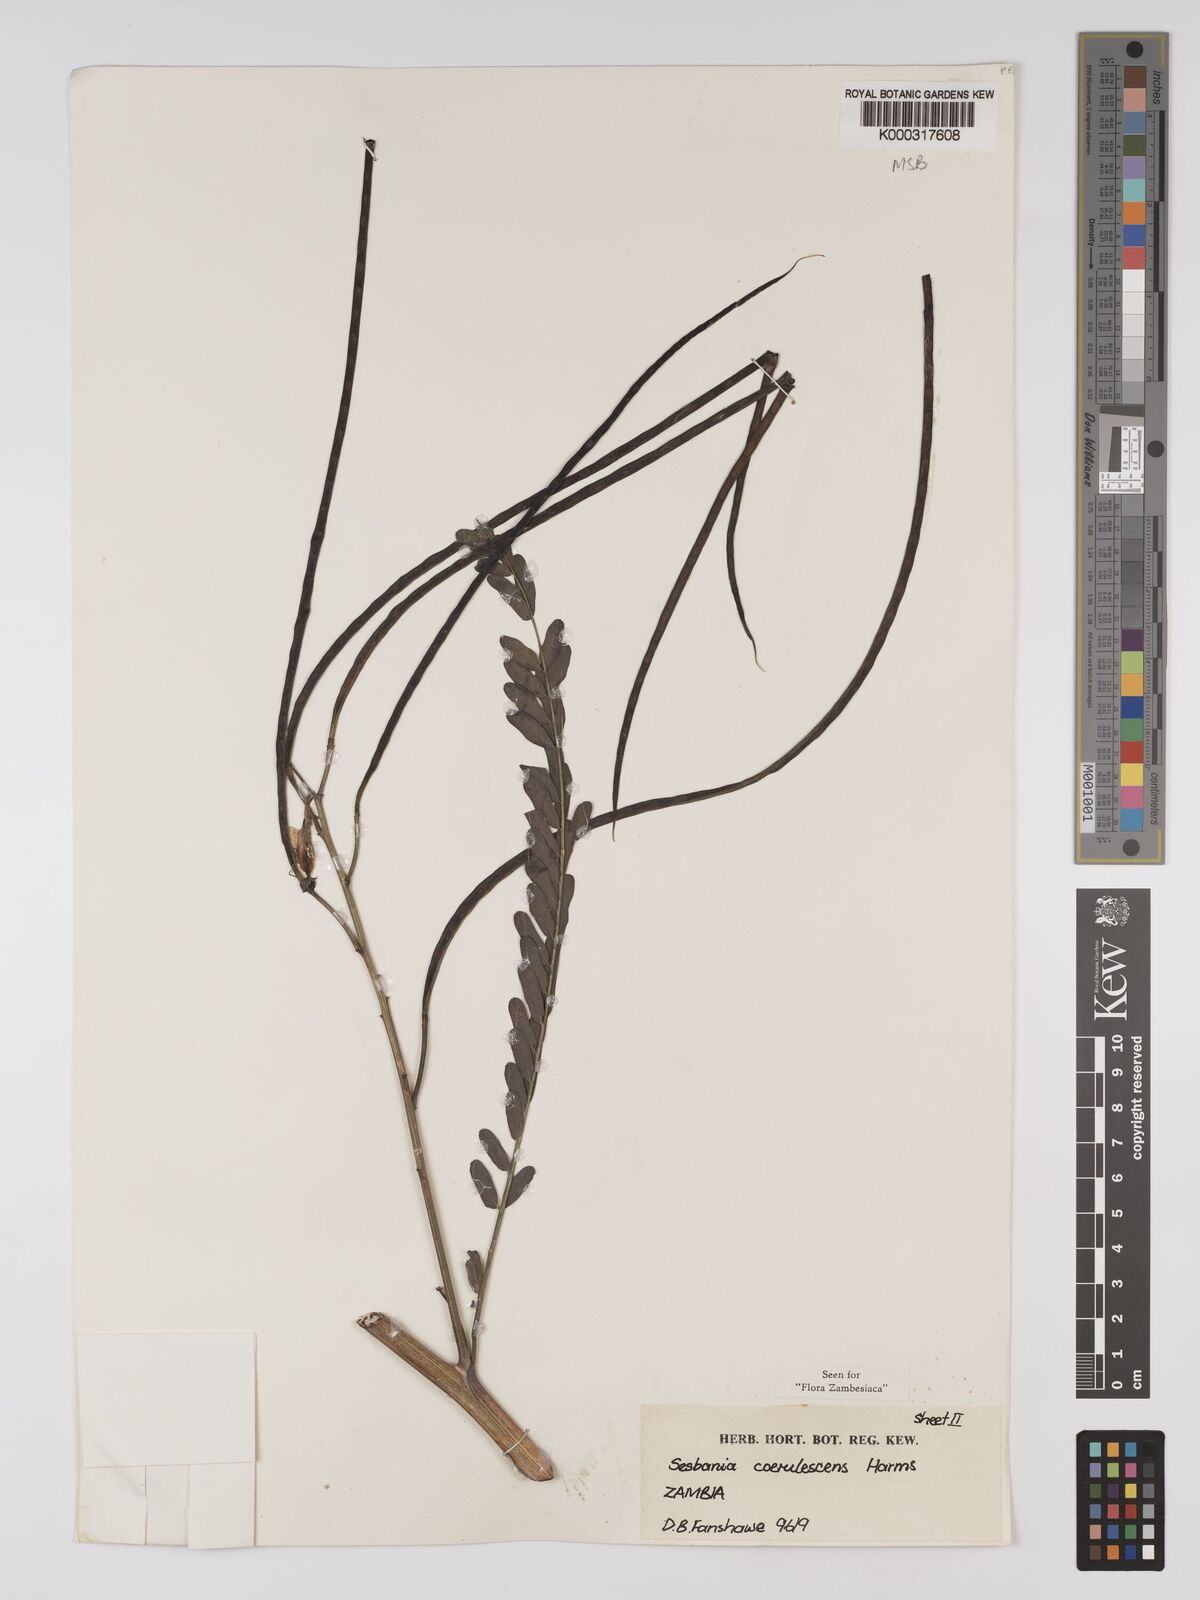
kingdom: Plantae
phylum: Tracheophyta
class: Magnoliopsida
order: Fabales
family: Fabaceae
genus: Sesbania
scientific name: Sesbania coerulescens
